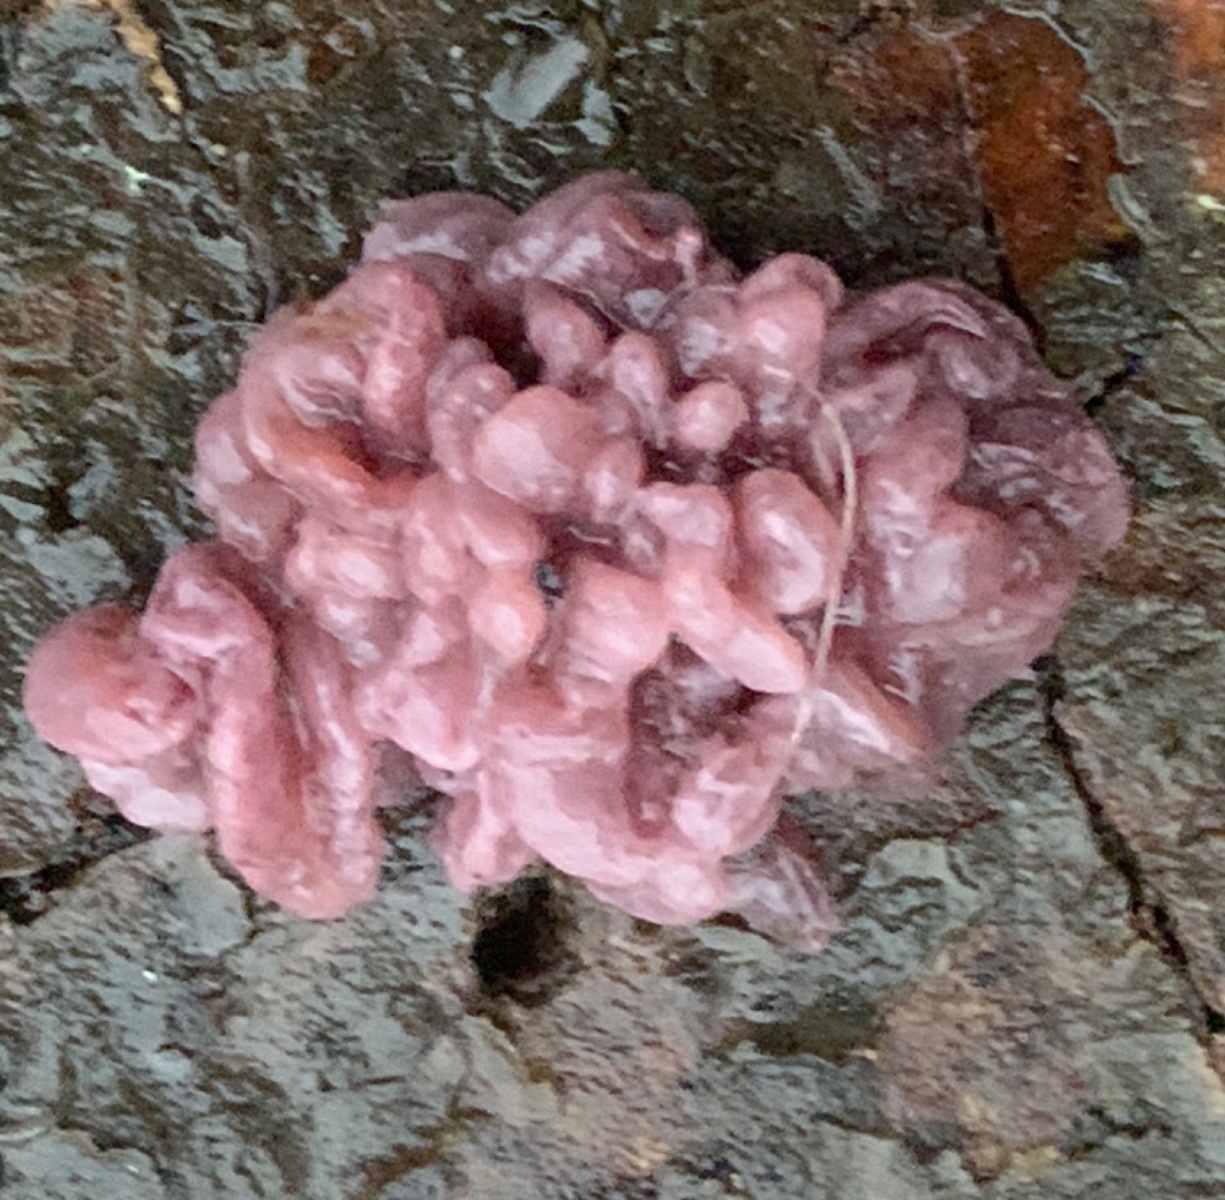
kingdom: Fungi
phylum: Ascomycota
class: Leotiomycetes
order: Helotiales
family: Gelatinodiscaceae
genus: Ascocoryne
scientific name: Ascocoryne sarcoides
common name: rødlilla sejskive
